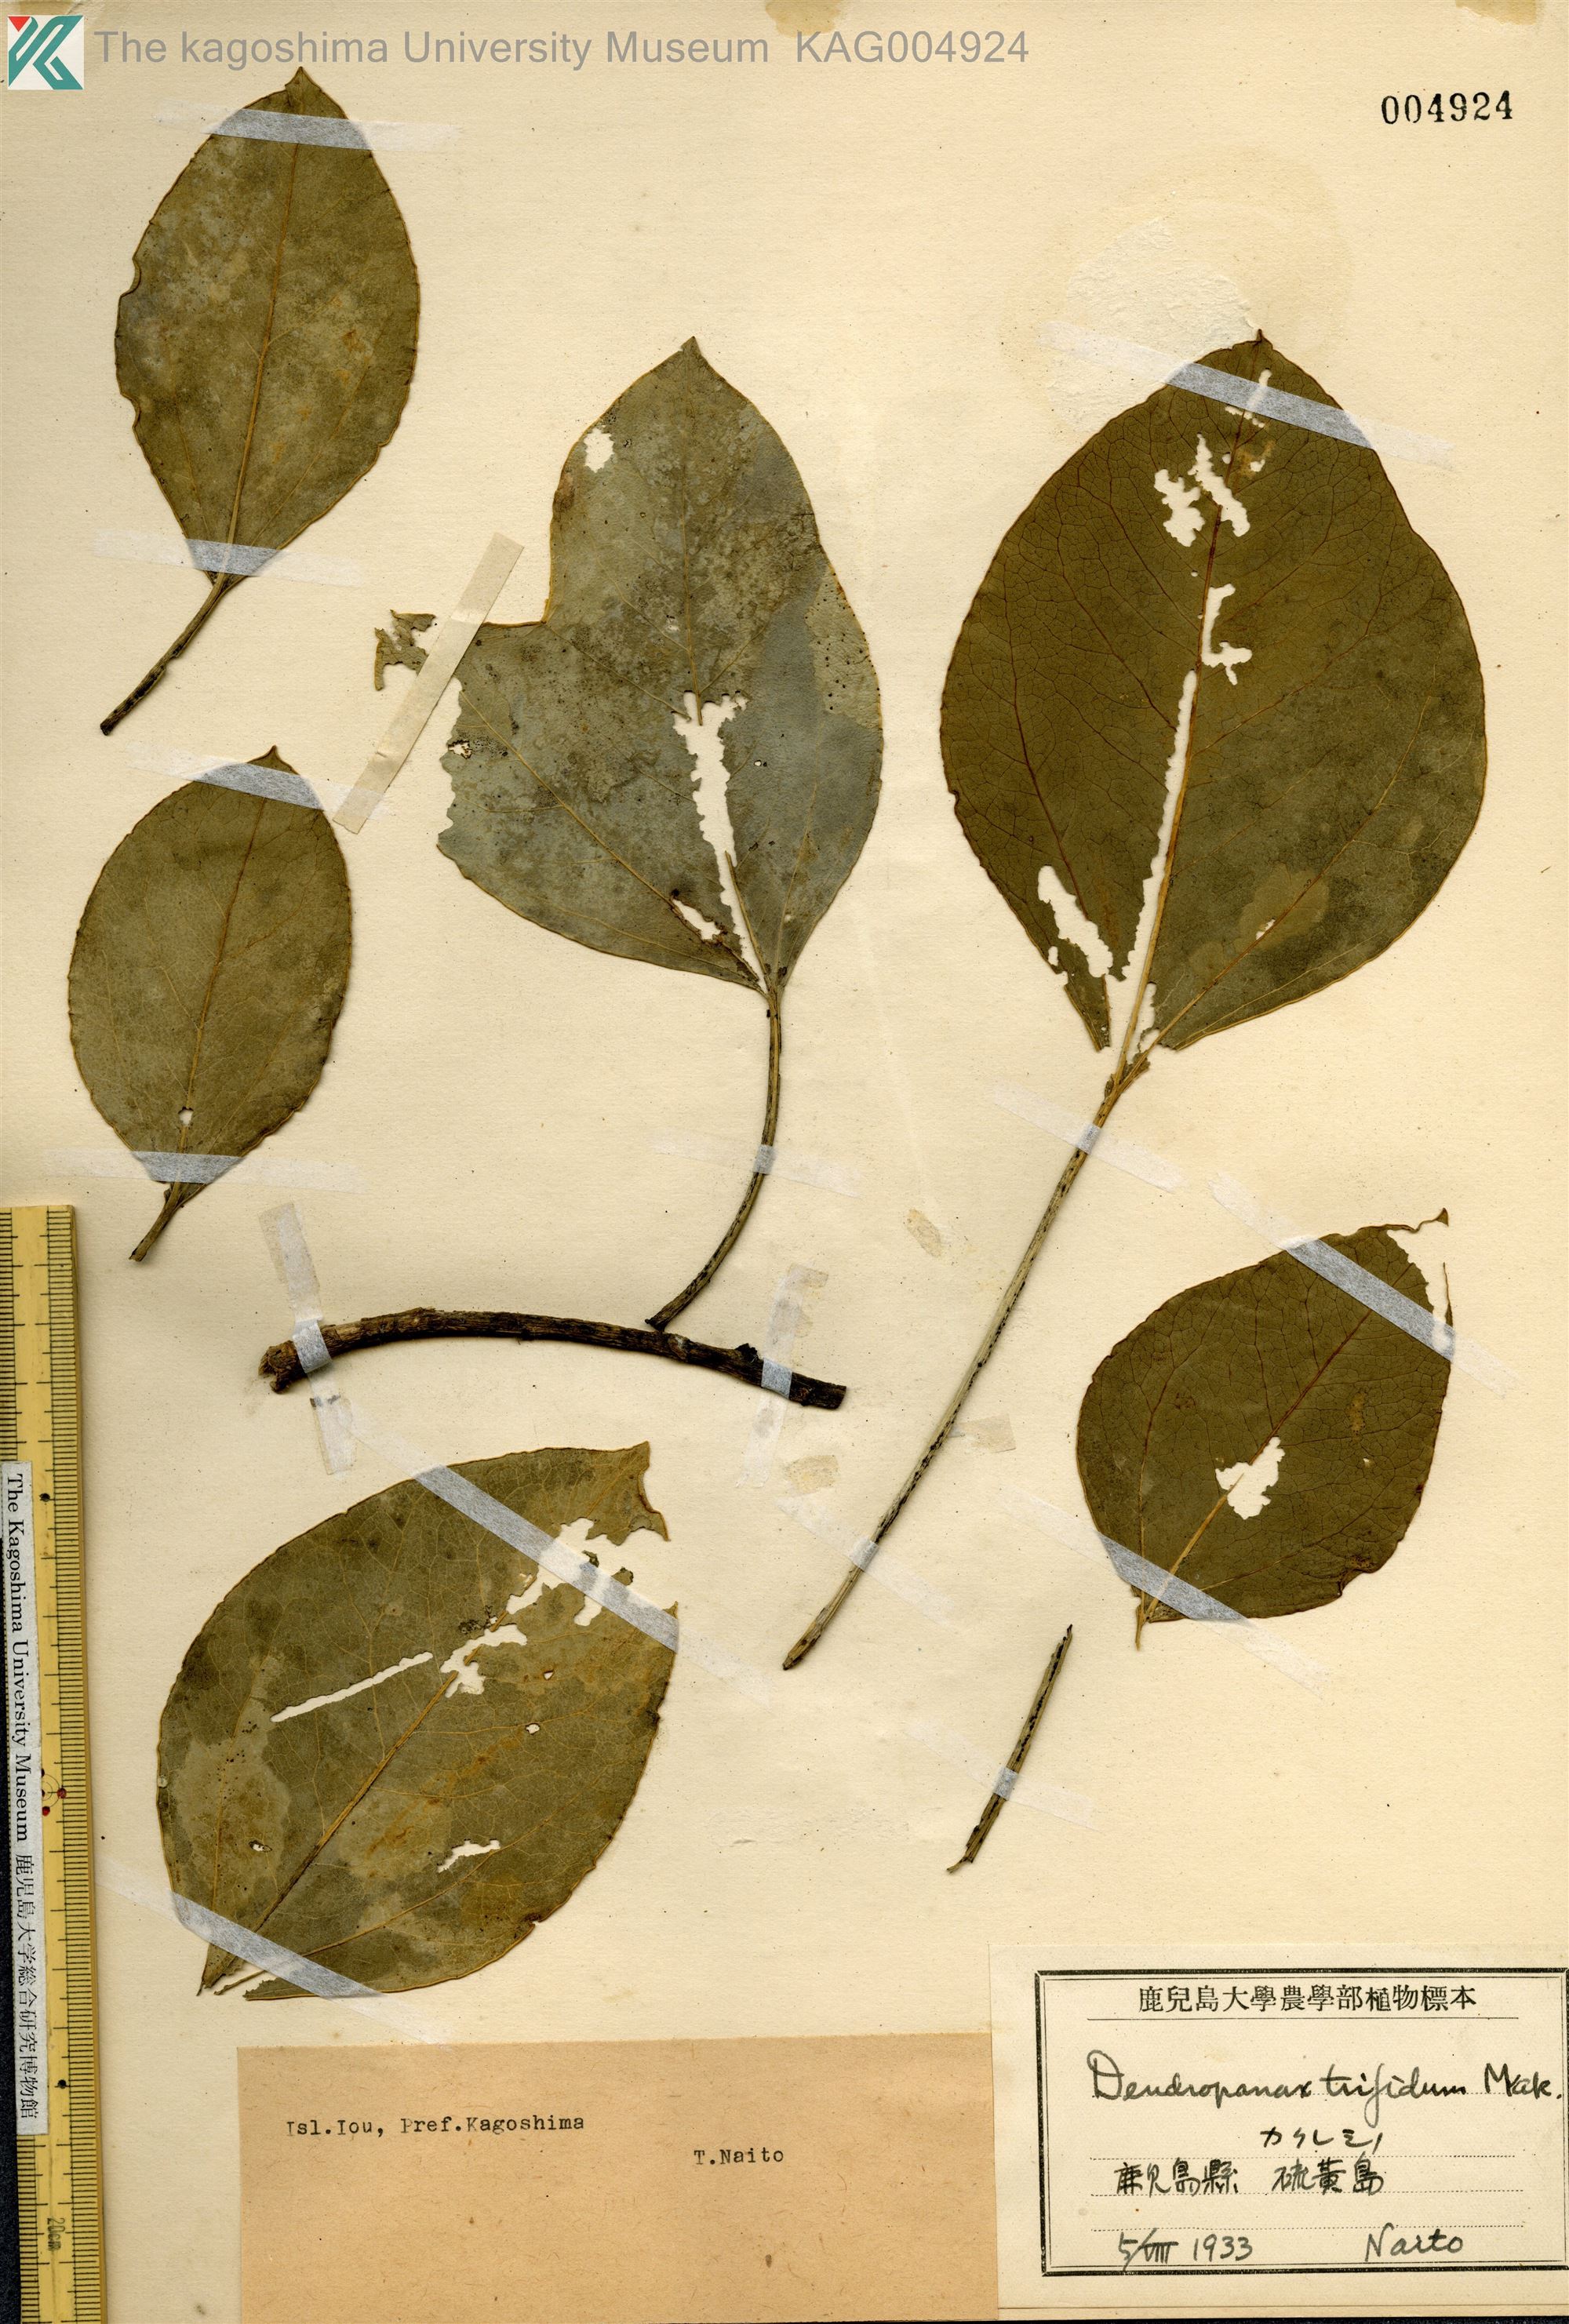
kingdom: Plantae
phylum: Tracheophyta
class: Magnoliopsida
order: Apiales
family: Araliaceae
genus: Dendropanax
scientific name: Dendropanax trifidus
